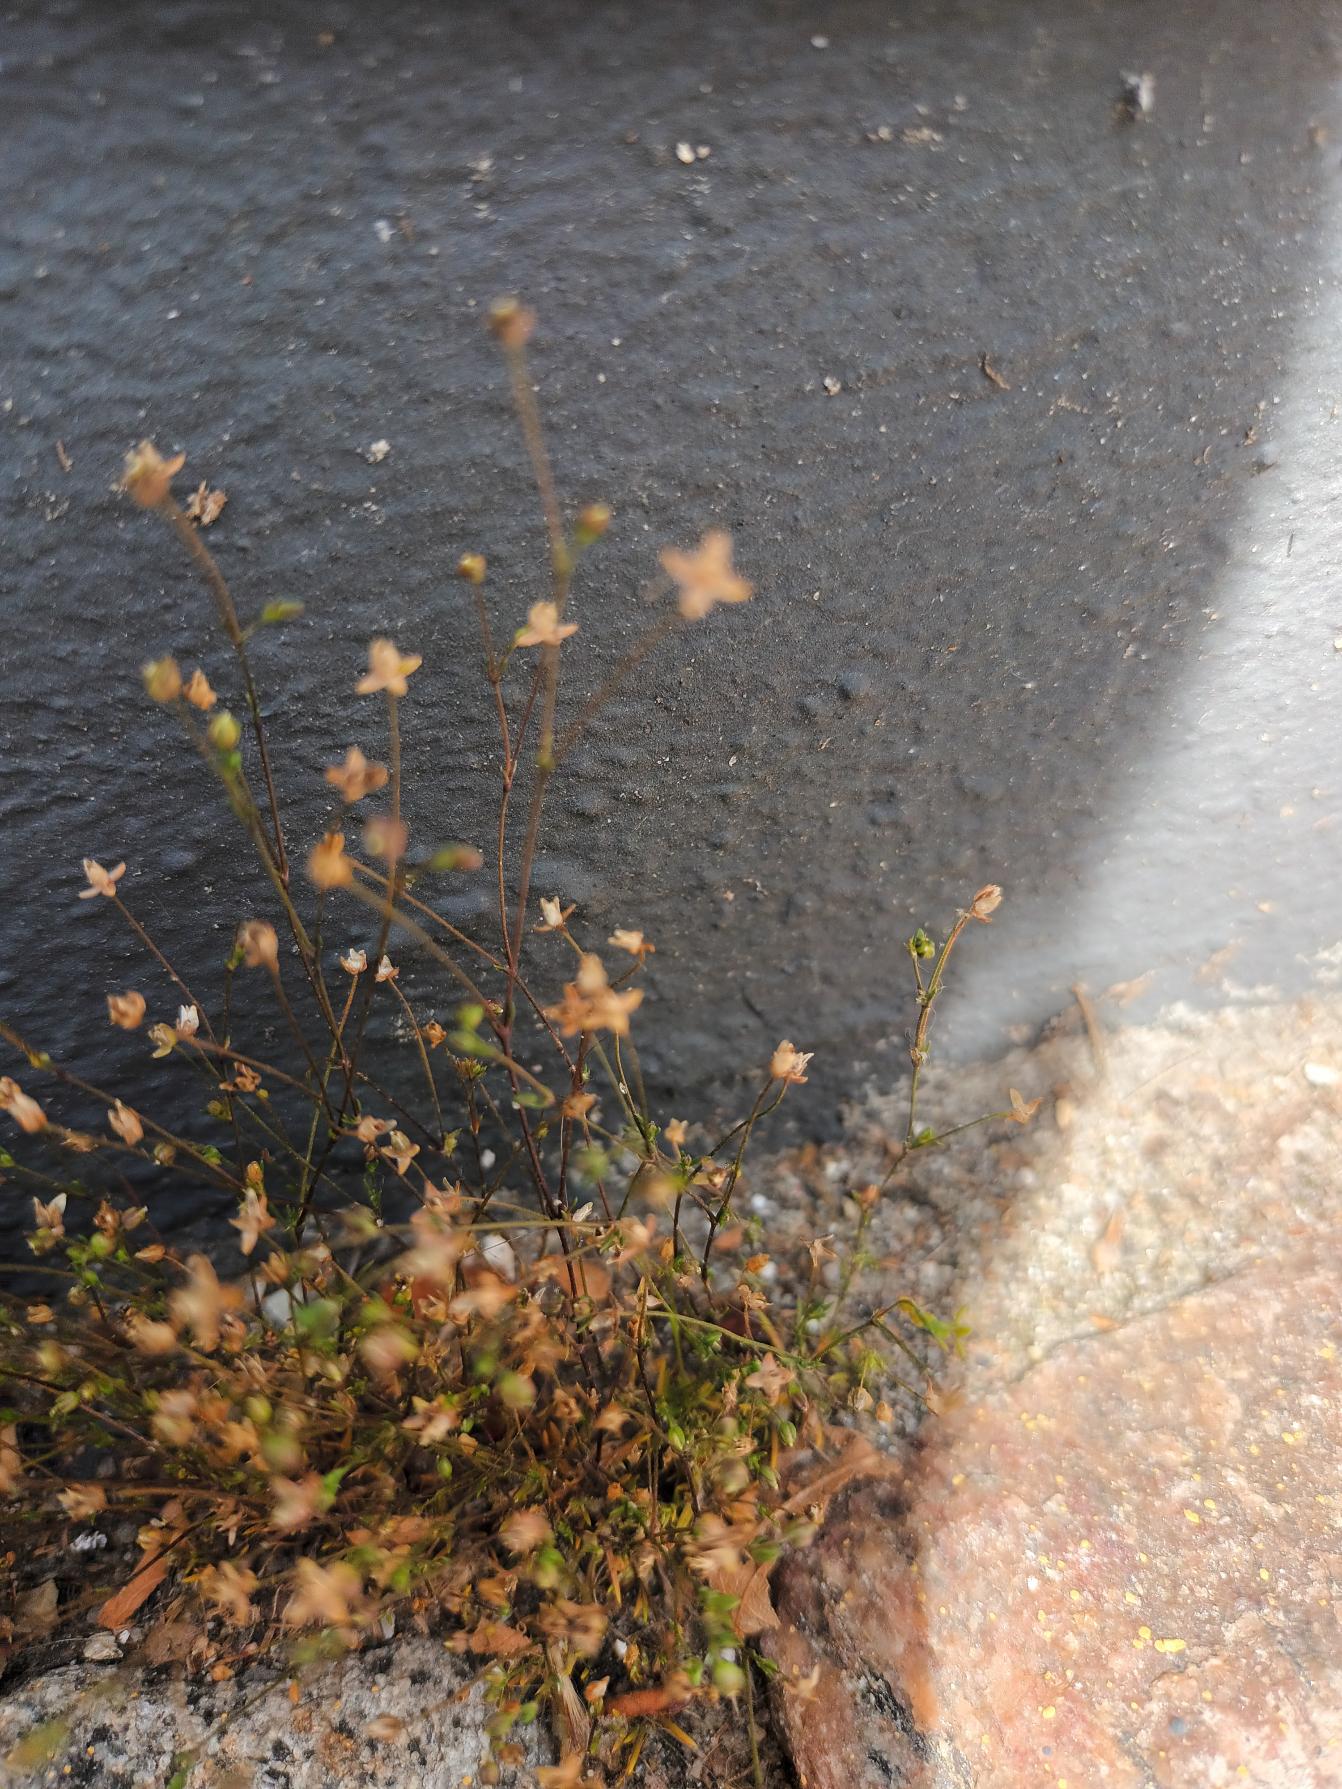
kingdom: Plantae
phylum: Tracheophyta
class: Magnoliopsida
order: Caryophyllales
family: Caryophyllaceae
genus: Sagina
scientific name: Sagina micropetala
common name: Håret firling
